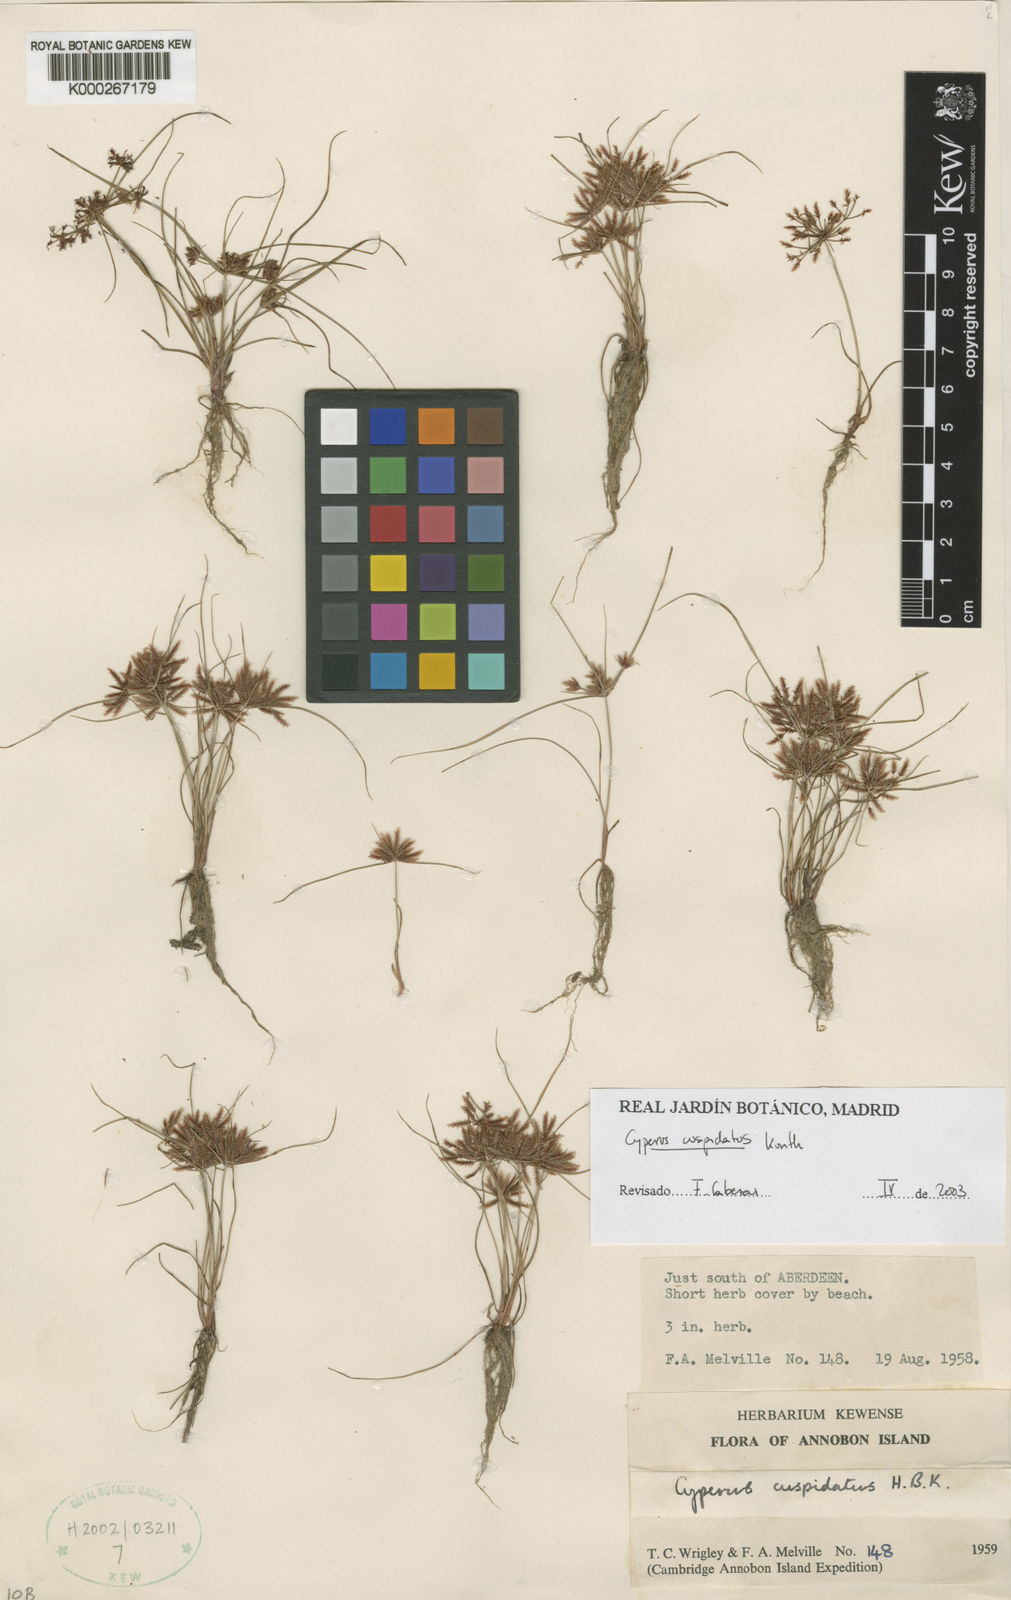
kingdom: Plantae
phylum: Tracheophyta
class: Liliopsida
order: Poales
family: Cyperaceae
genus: Cyperus
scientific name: Cyperus cuspidatus
